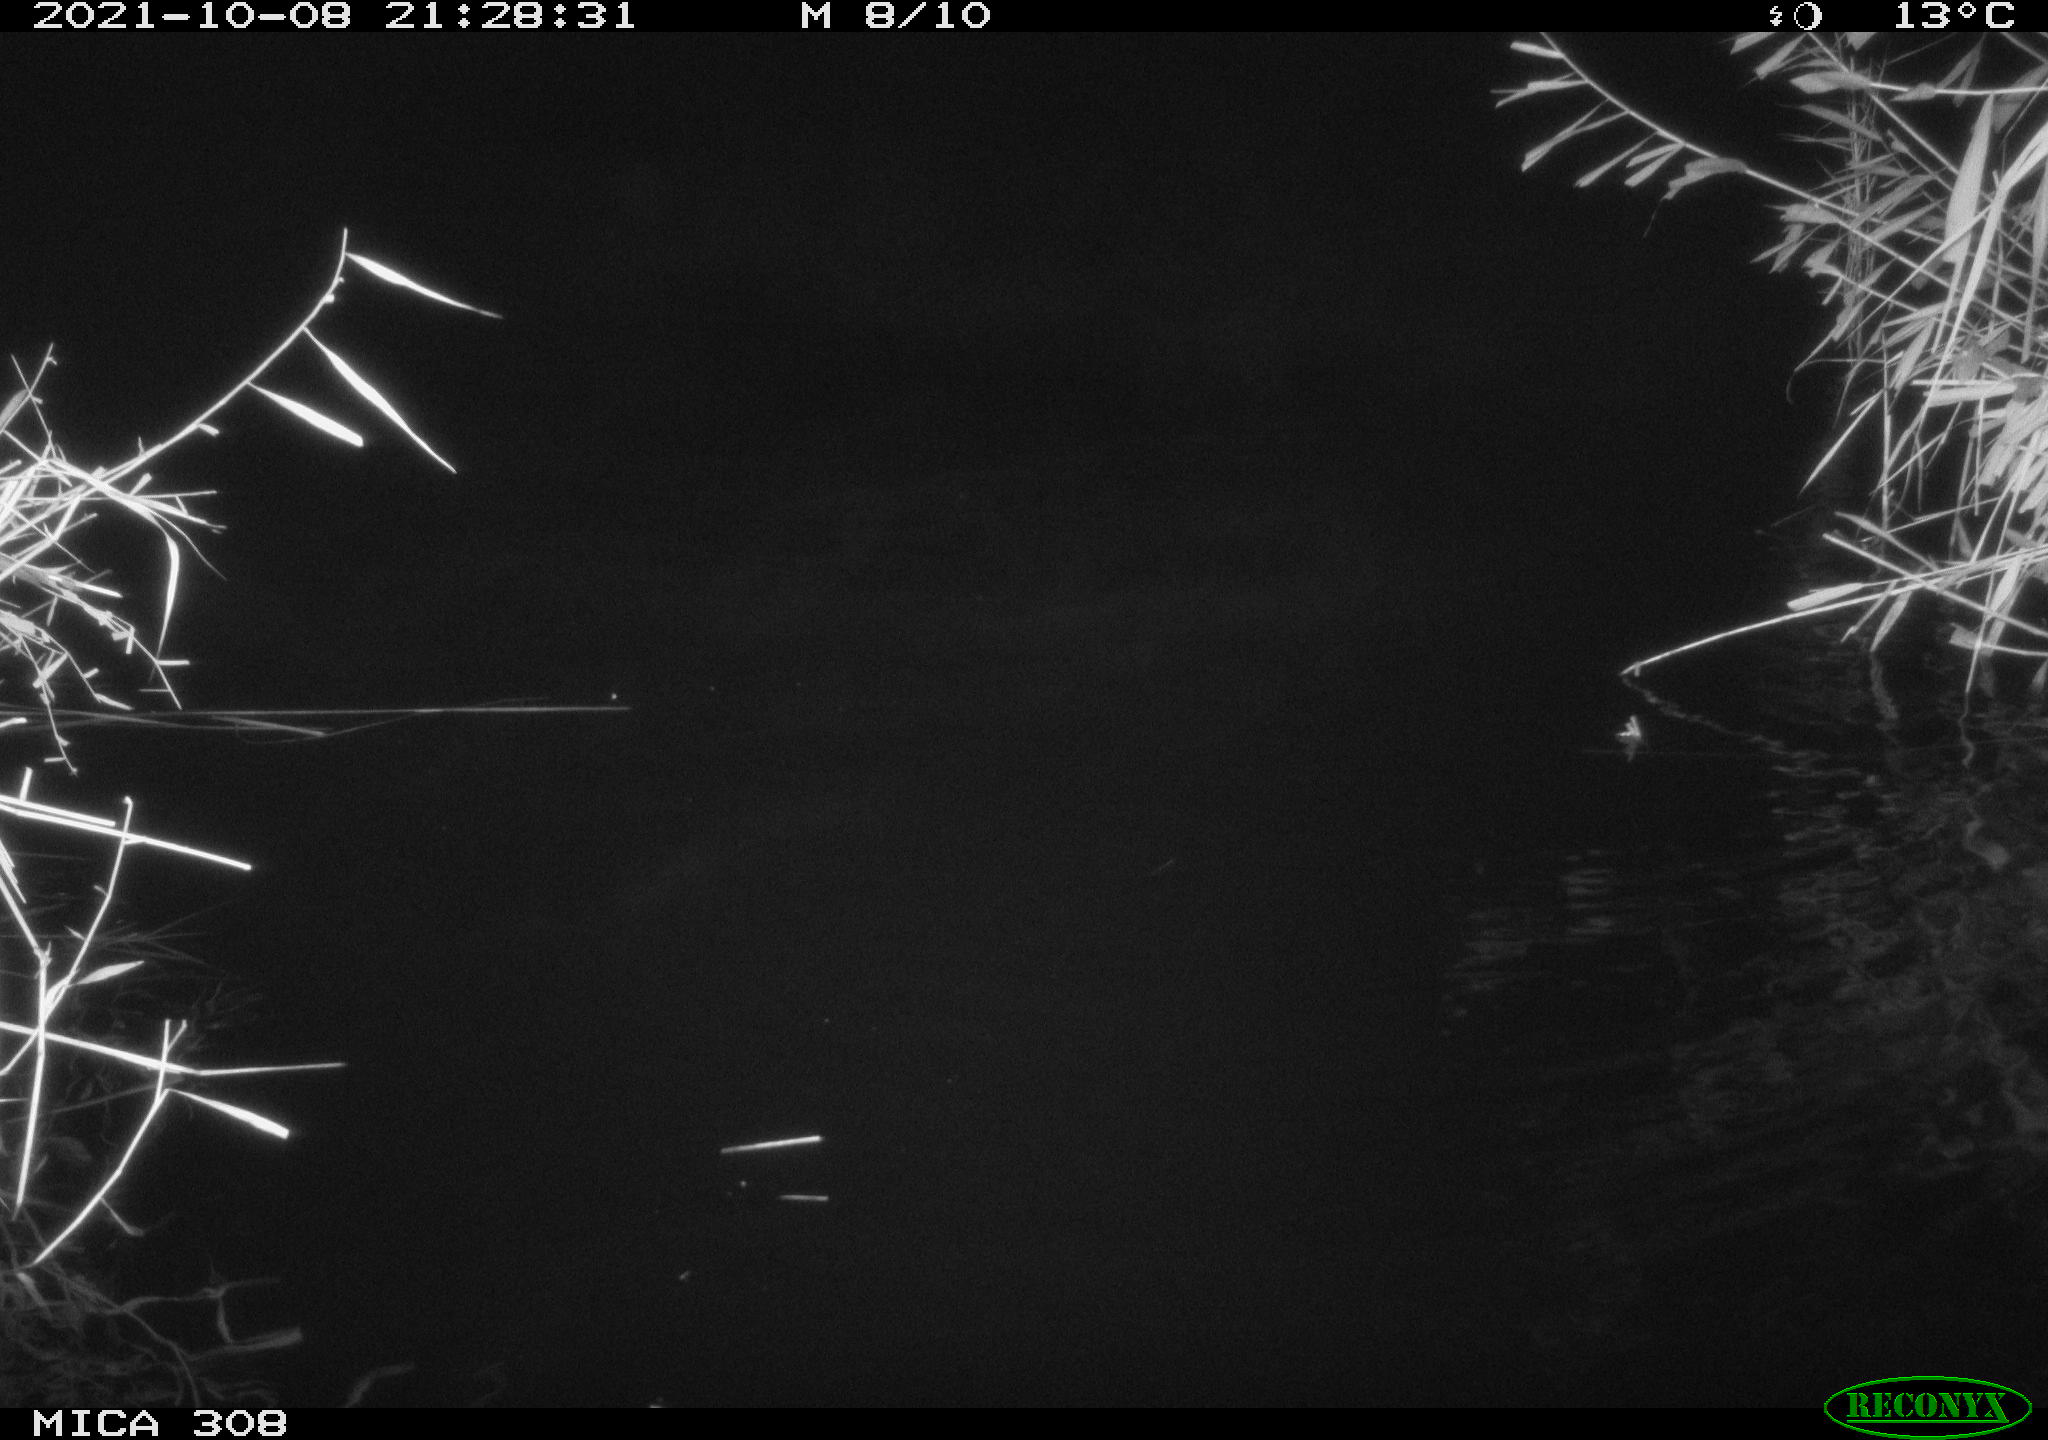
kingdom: Animalia
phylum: Chordata
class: Mammalia
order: Rodentia
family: Cricetidae
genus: Ondatra
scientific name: Ondatra zibethicus
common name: Muskrat
